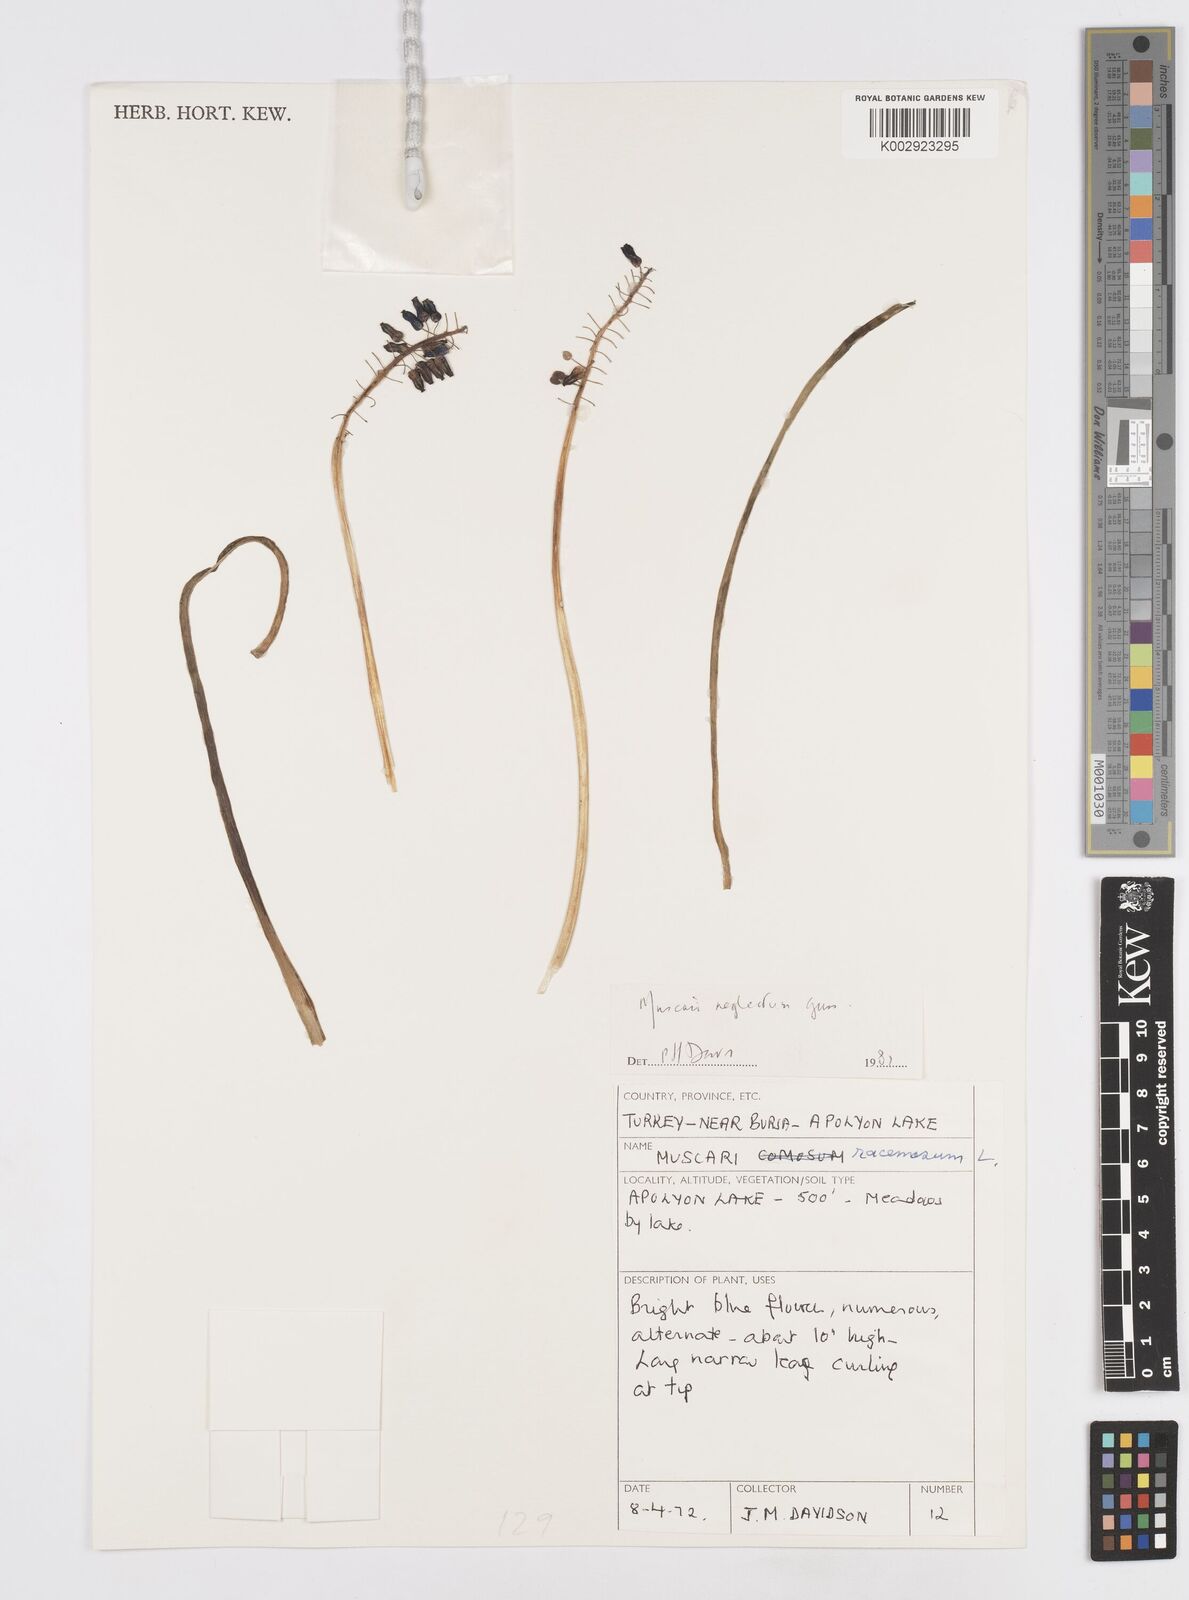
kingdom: Plantae
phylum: Tracheophyta
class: Liliopsida
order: Asparagales
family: Asparagaceae
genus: Muscari
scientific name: Muscari neglectum
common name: Grape-hyacinth
